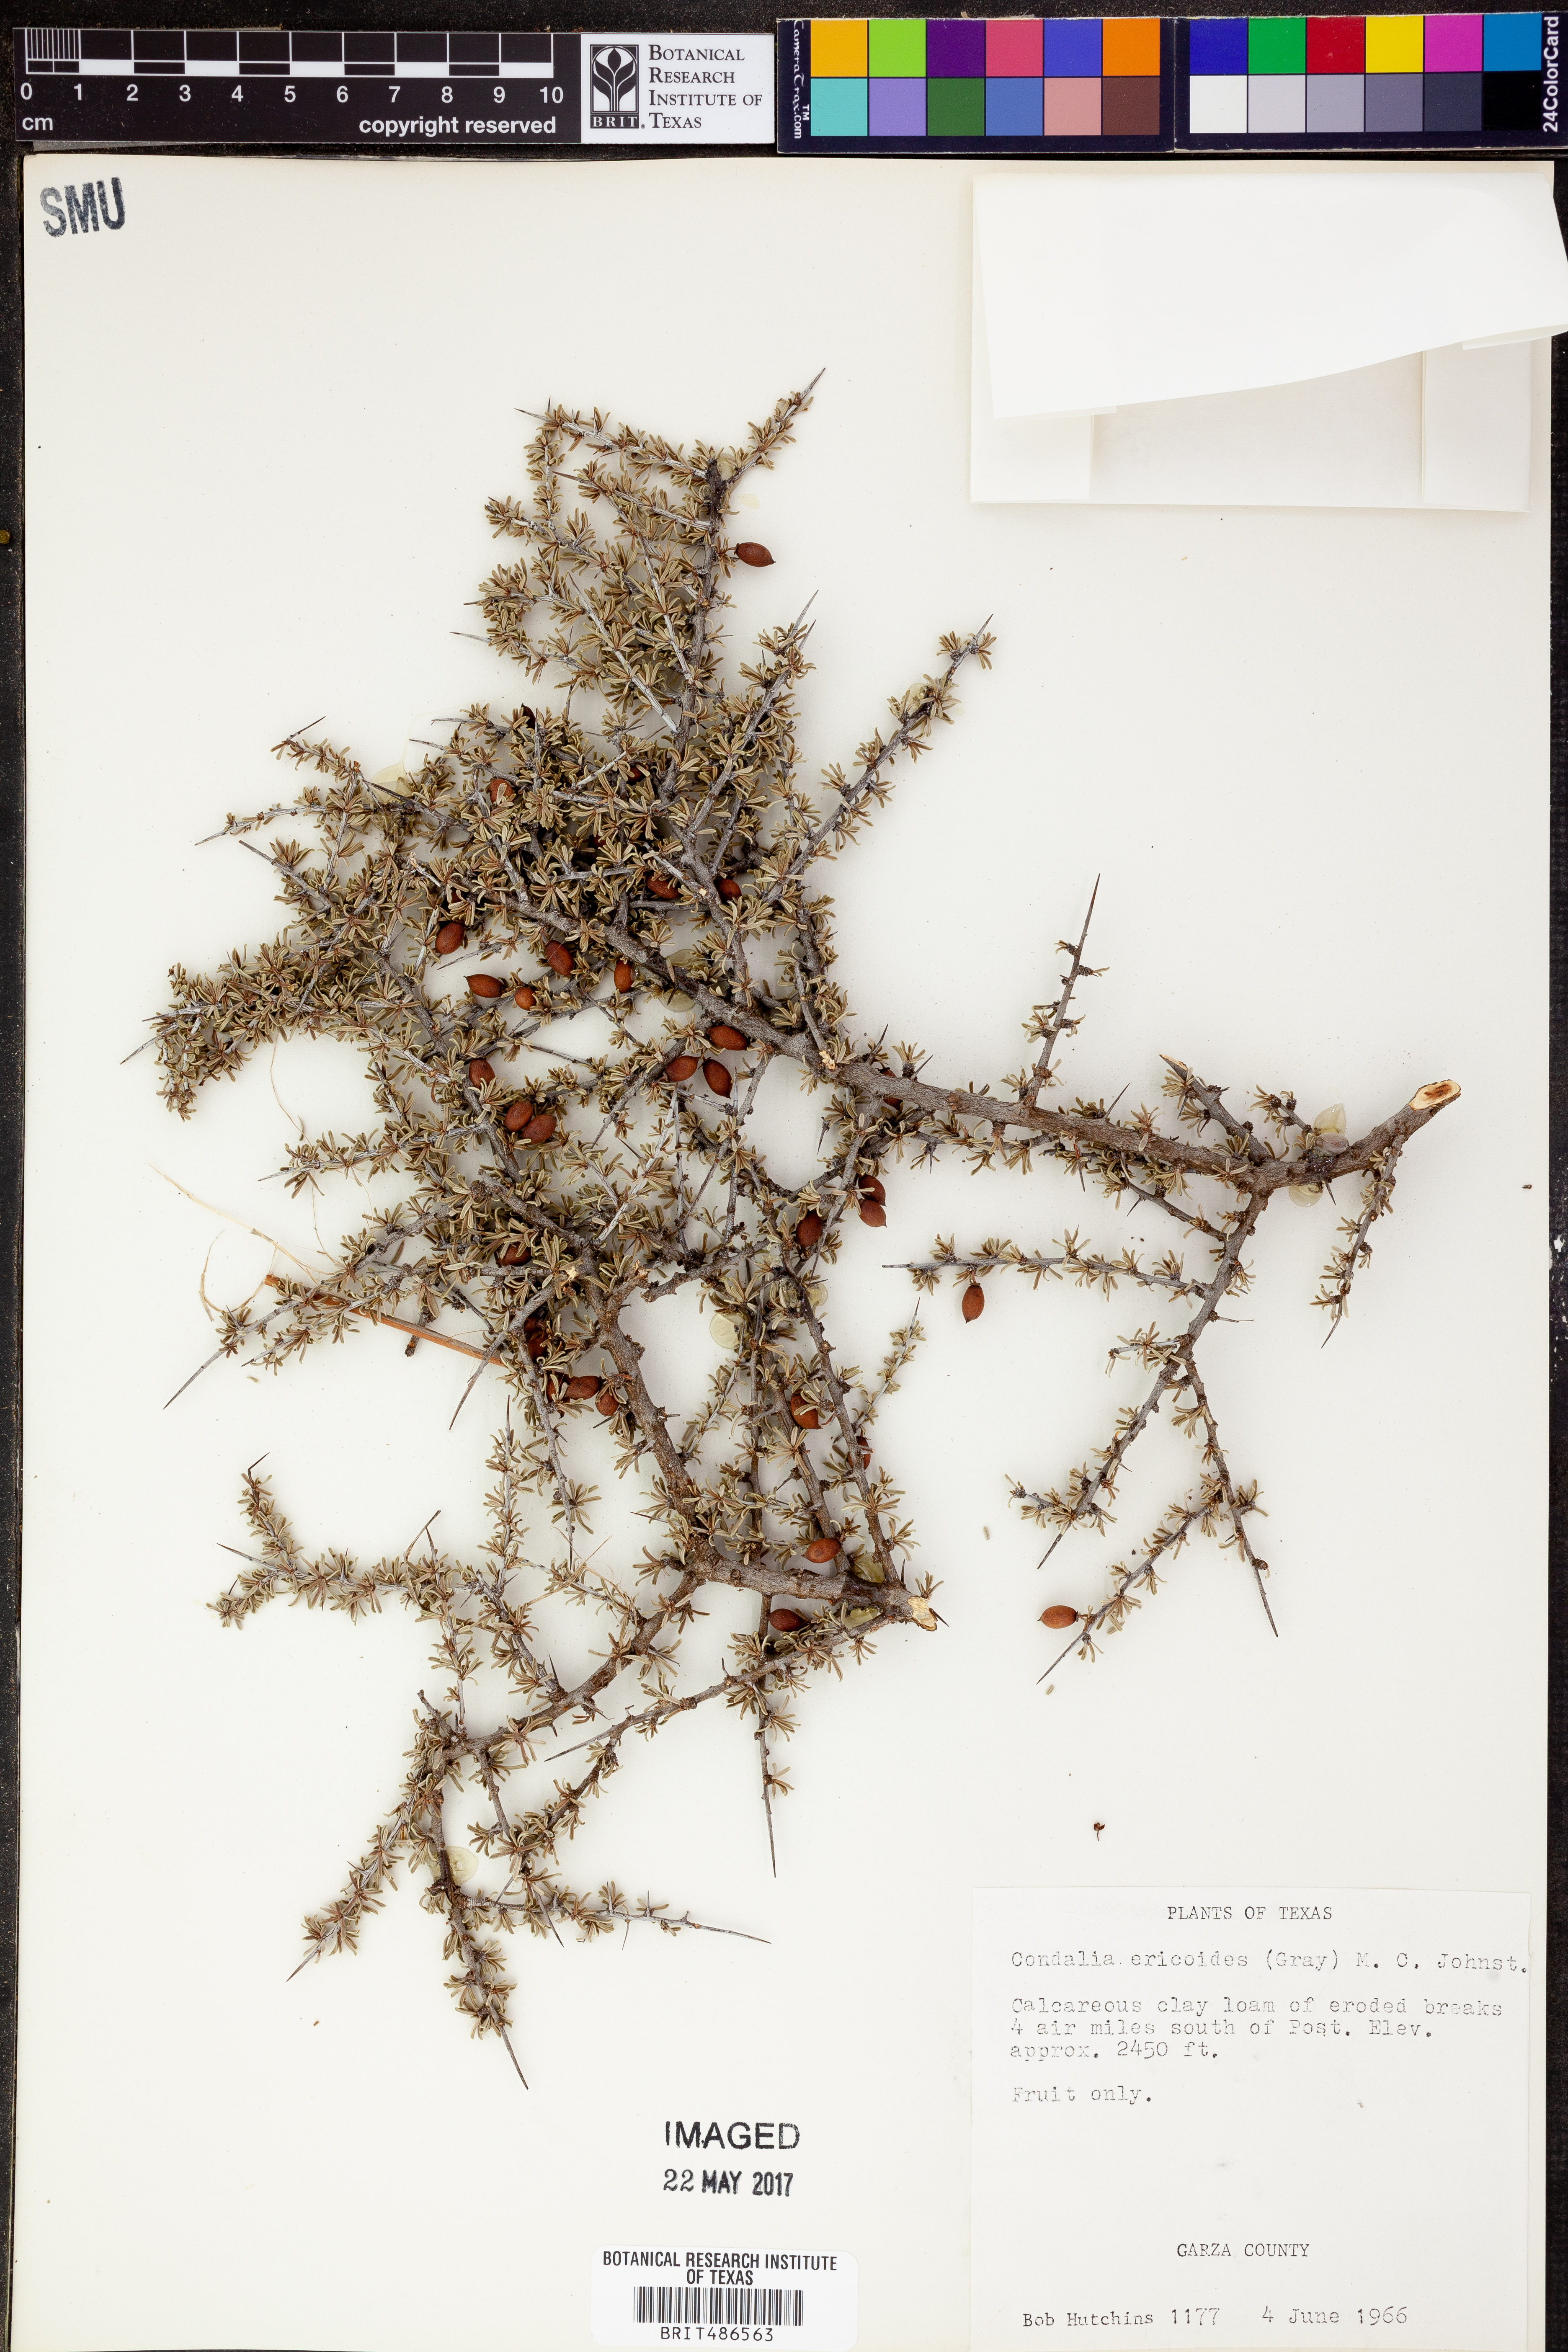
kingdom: Plantae
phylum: Tracheophyta
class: Magnoliopsida
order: Rosales
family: Rhamnaceae
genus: Condalia
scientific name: Condalia ericoides
